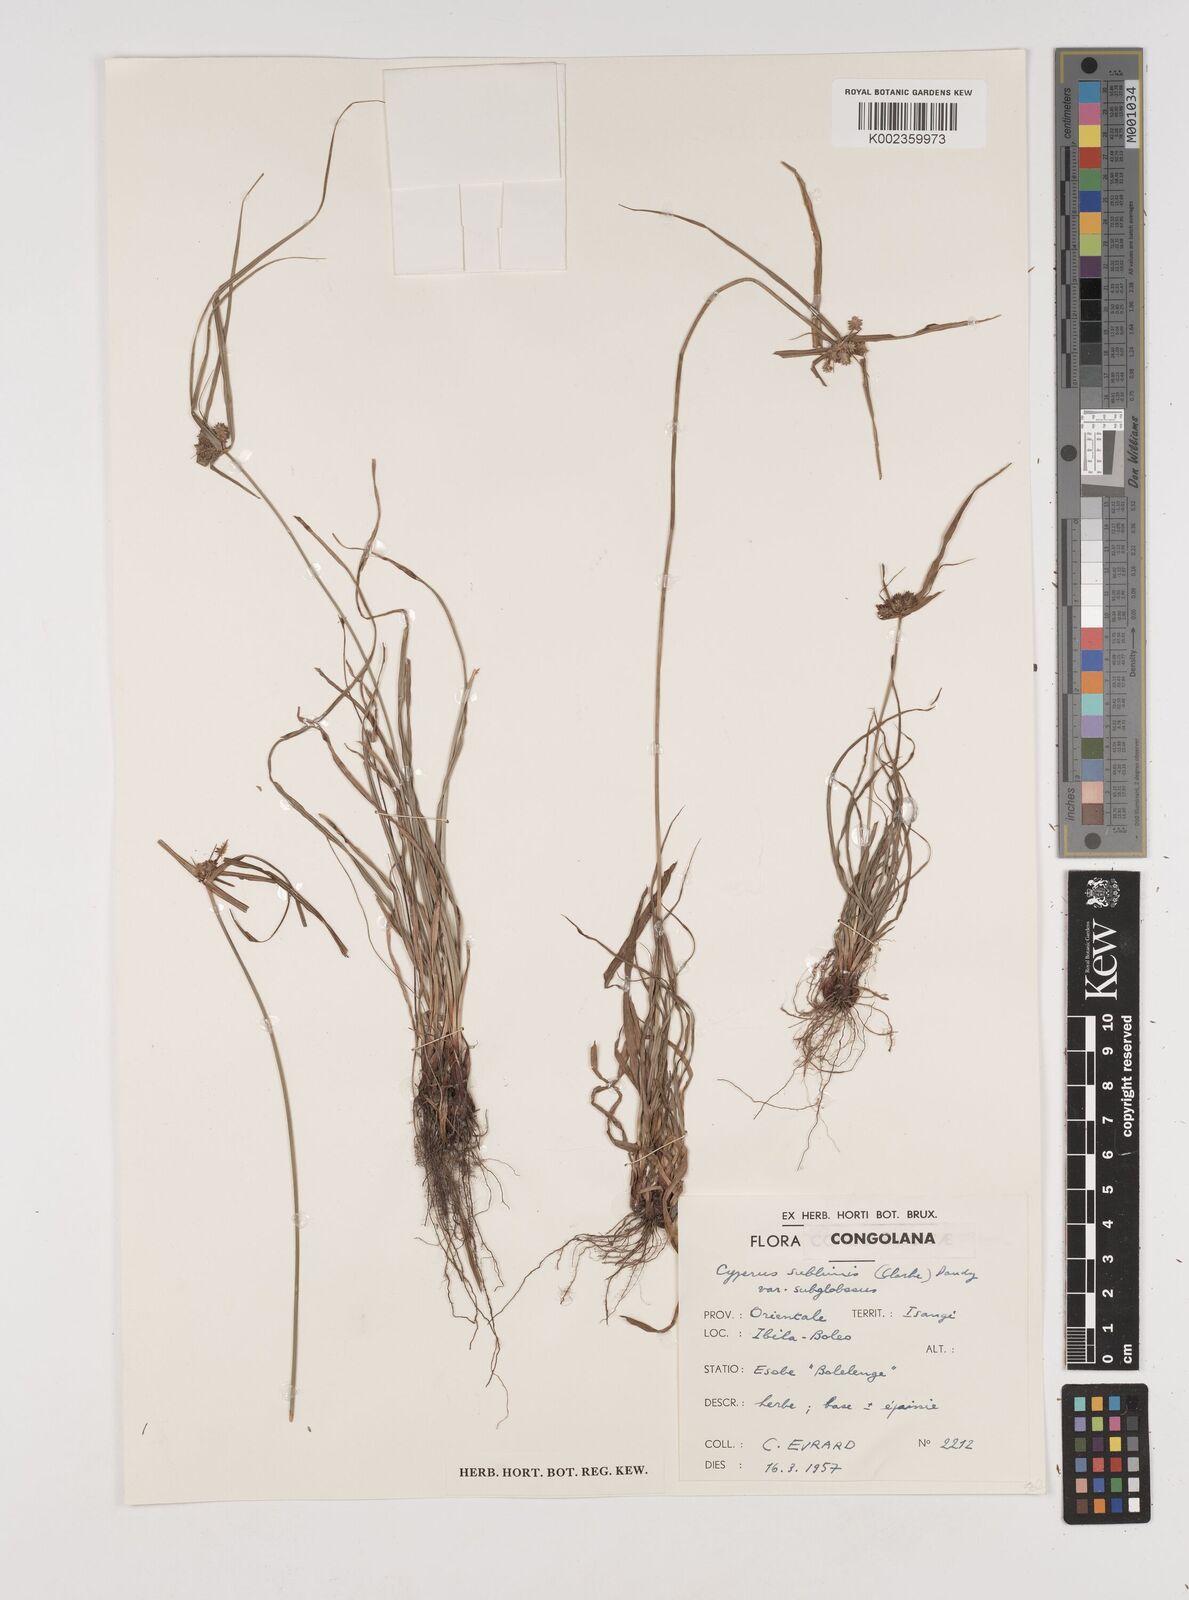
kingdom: Plantae
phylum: Tracheophyta
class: Liliopsida
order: Poales
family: Cyperaceae
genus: Cyperus
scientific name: Cyperus cyperoides
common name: Pacific island flat sedge
